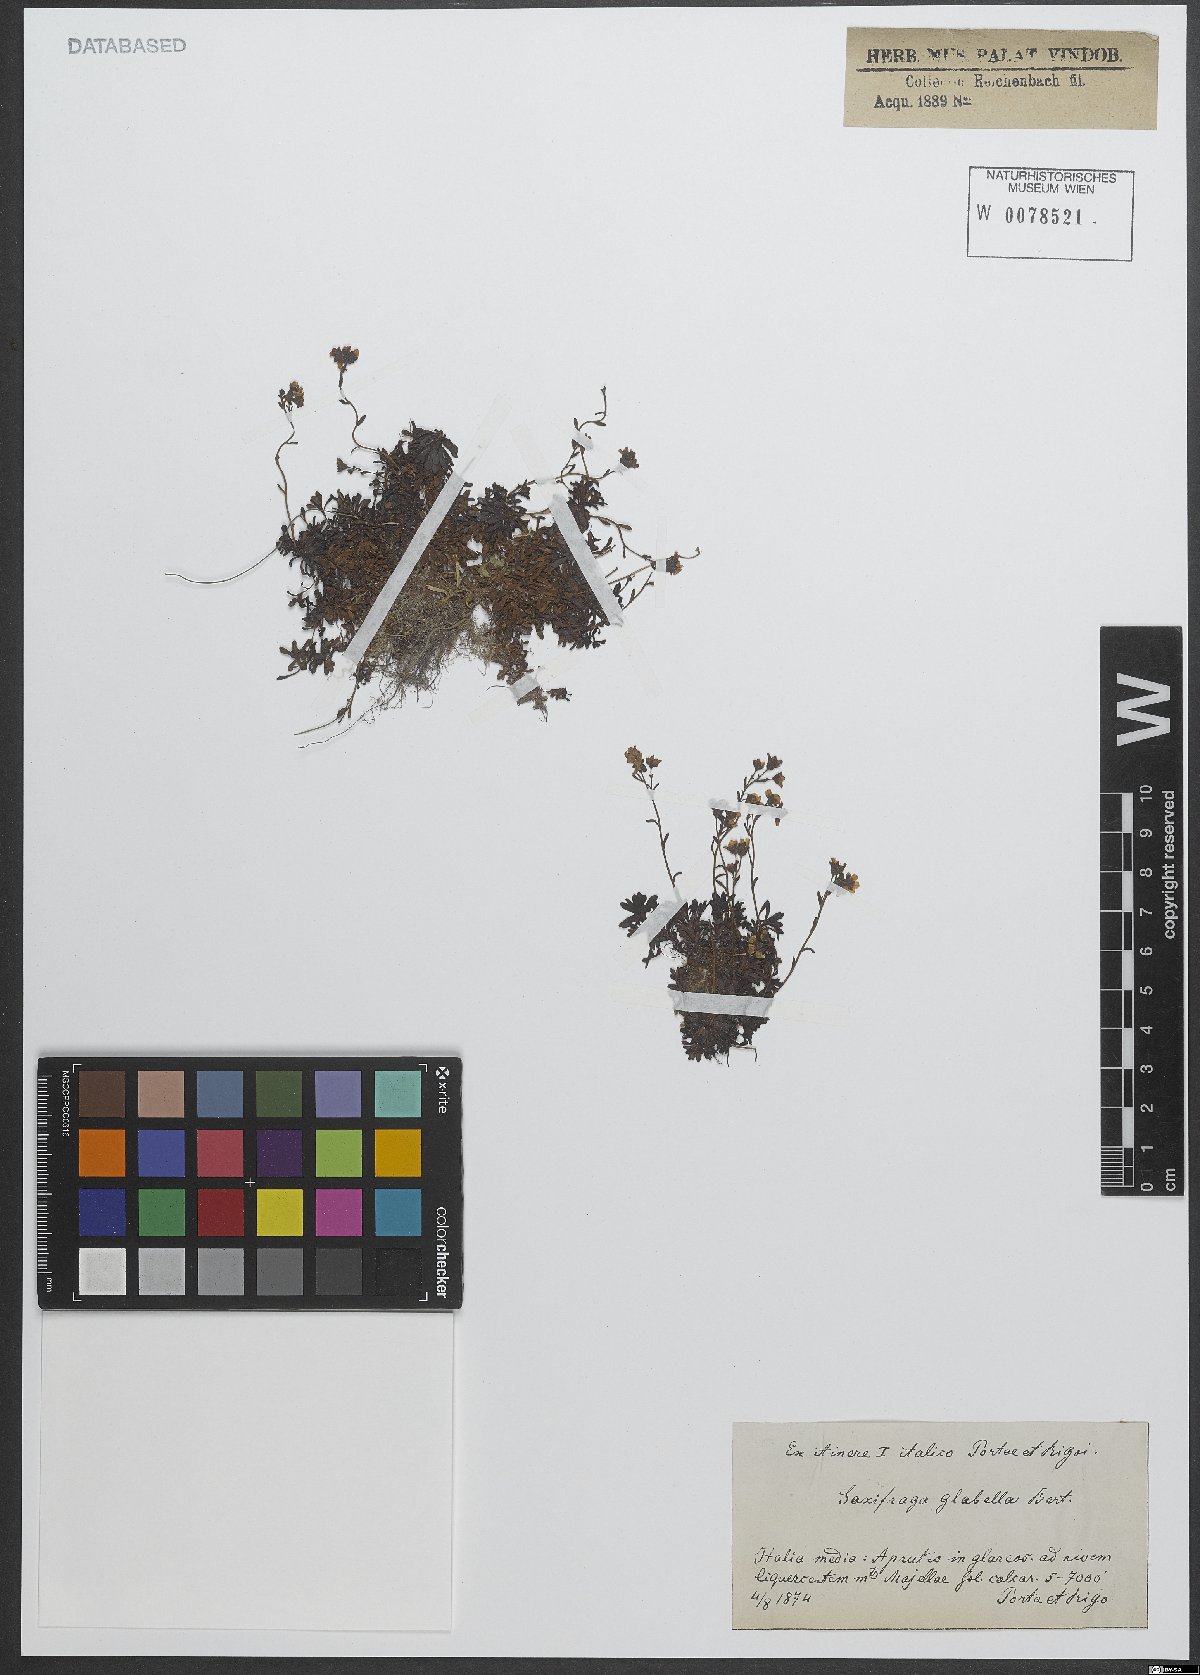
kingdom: Plantae
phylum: Tracheophyta
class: Magnoliopsida
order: Saxifragales
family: Saxifragaceae
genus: Saxifraga
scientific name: Saxifraga glabella
